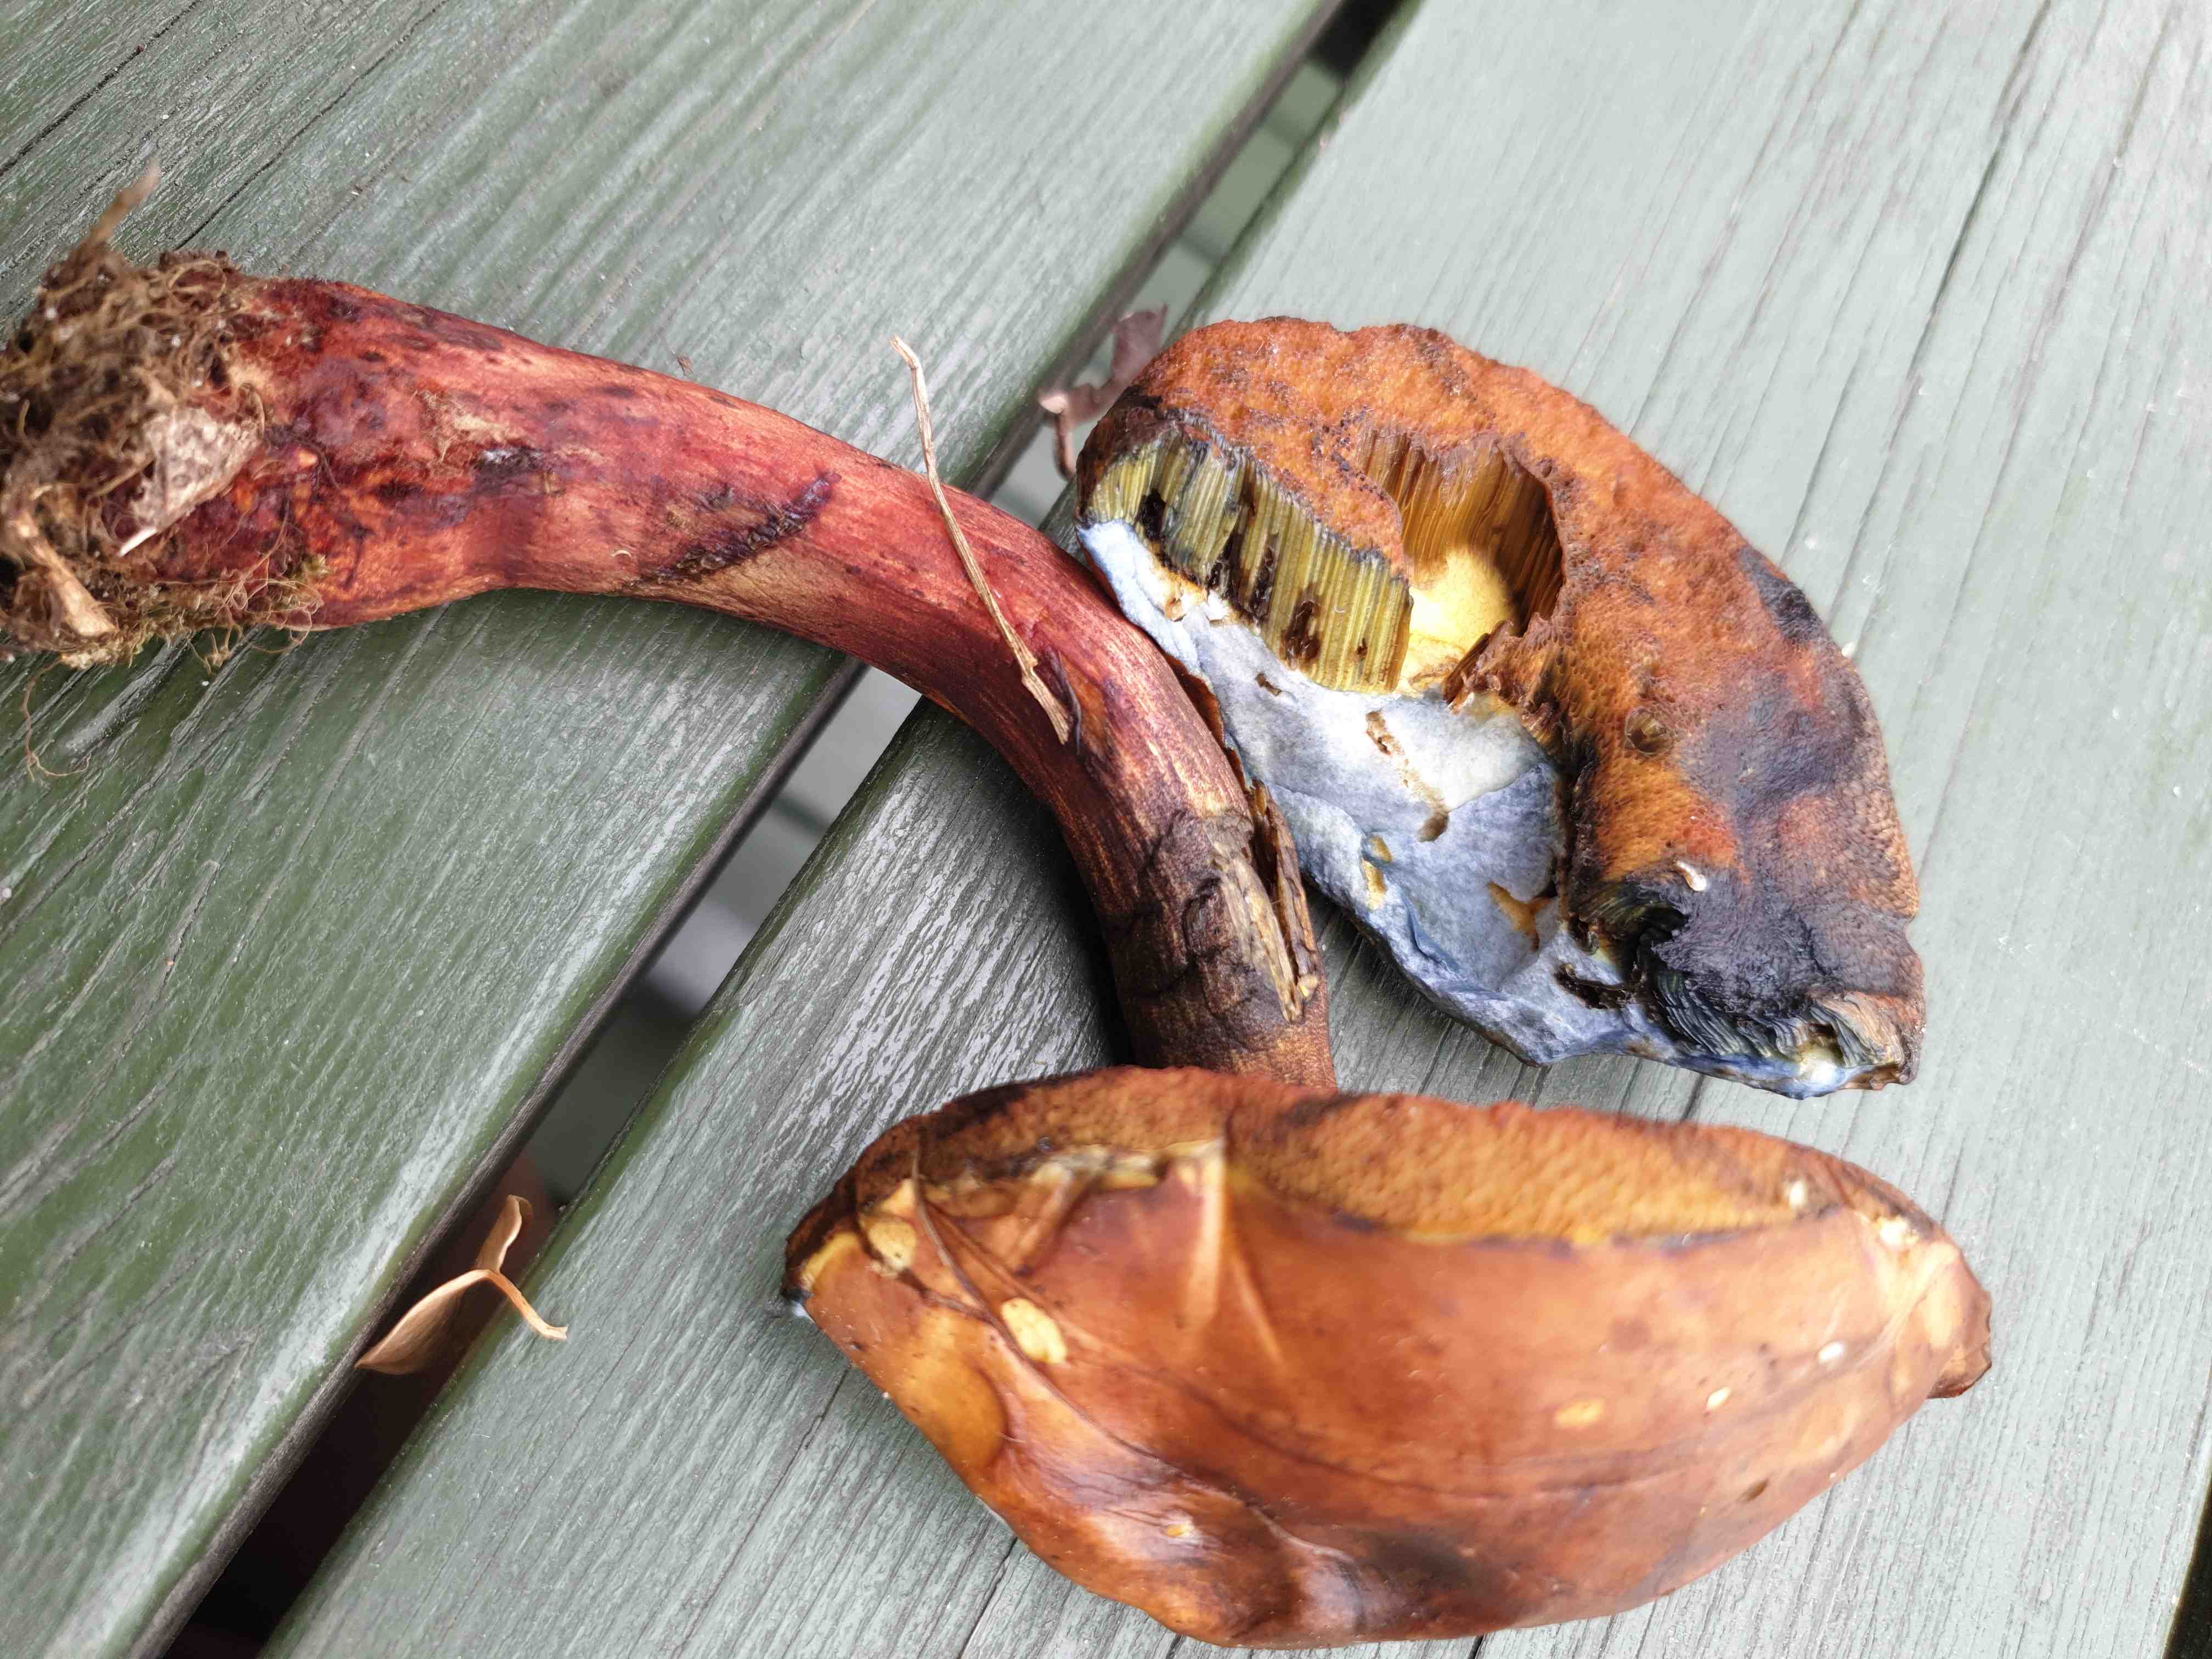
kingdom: Fungi
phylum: Basidiomycota
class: Agaricomycetes
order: Boletales
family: Boletaceae
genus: Neoboletus
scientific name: Neoboletus
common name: indigorørhat
